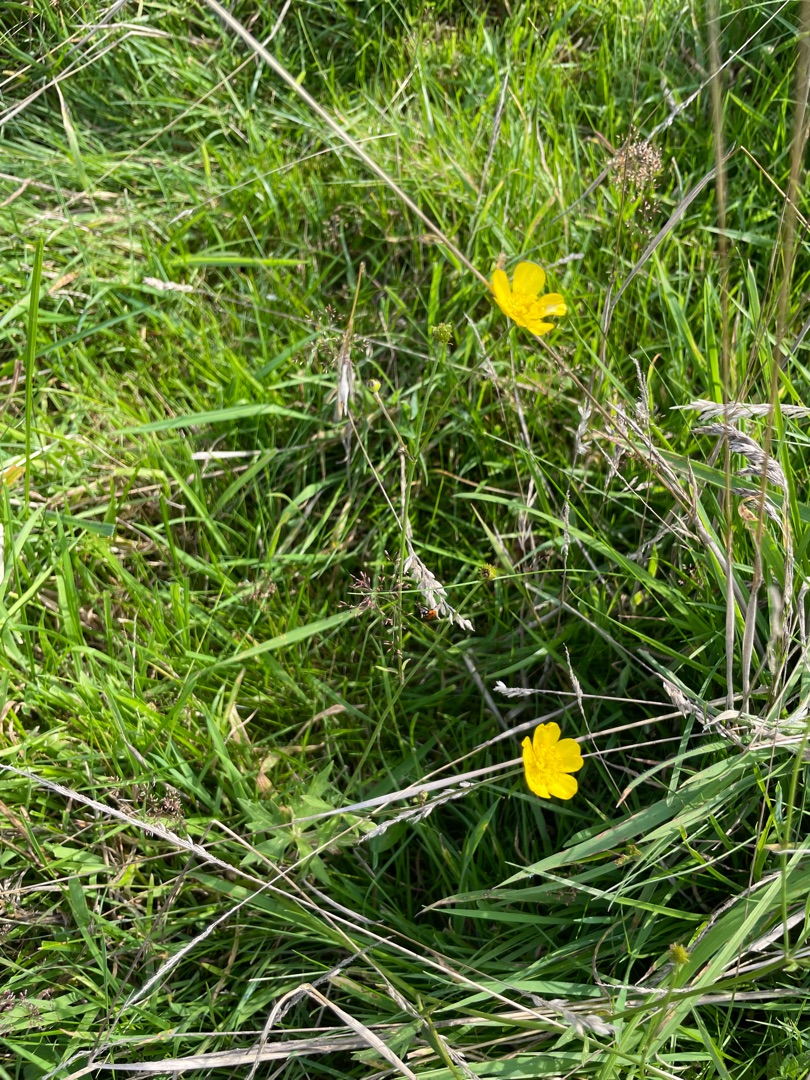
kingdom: Plantae
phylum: Tracheophyta
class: Magnoliopsida
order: Ranunculales
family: Ranunculaceae
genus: Ranunculus
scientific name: Ranunculus acris
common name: Bidende ranunkel
